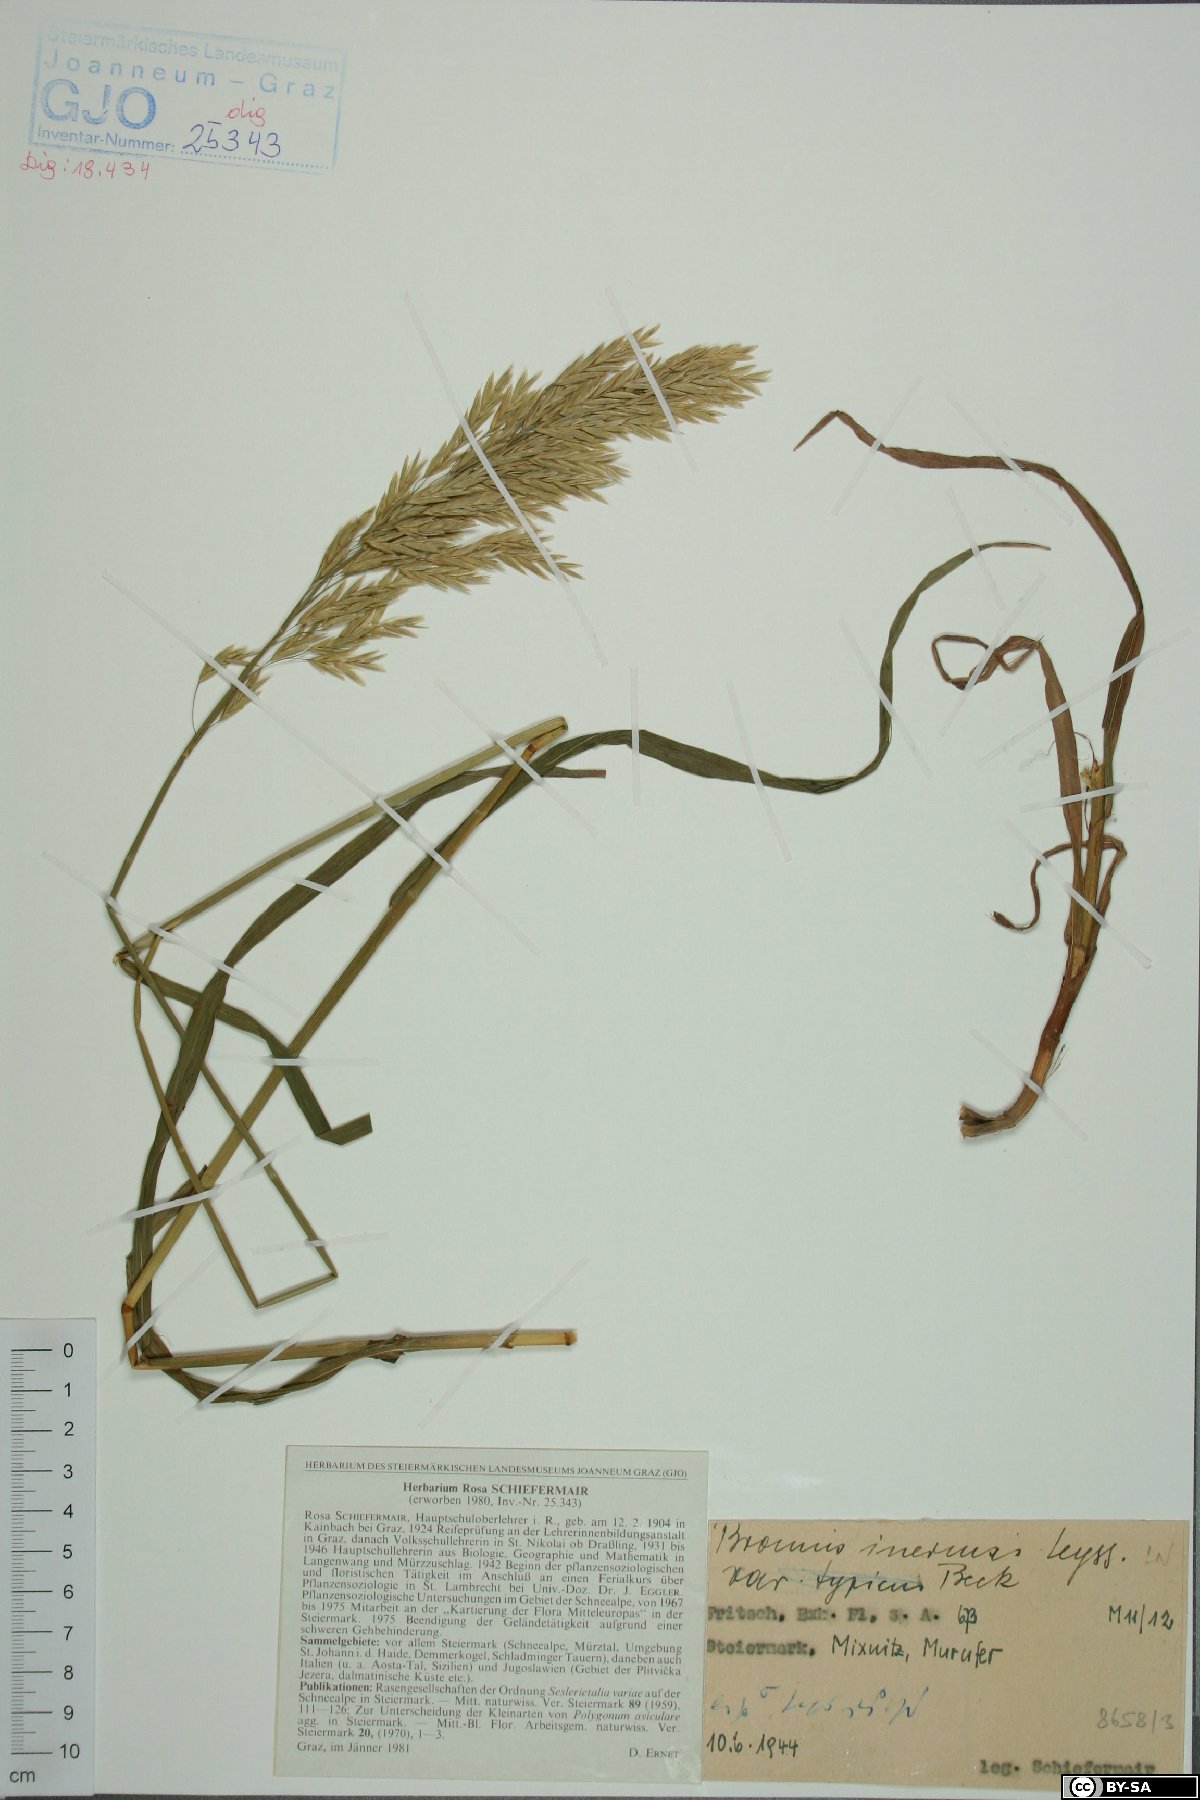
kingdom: Plantae
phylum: Tracheophyta
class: Liliopsida
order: Poales
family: Poaceae
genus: Bromus
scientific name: Bromus inermis
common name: Smooth brome
